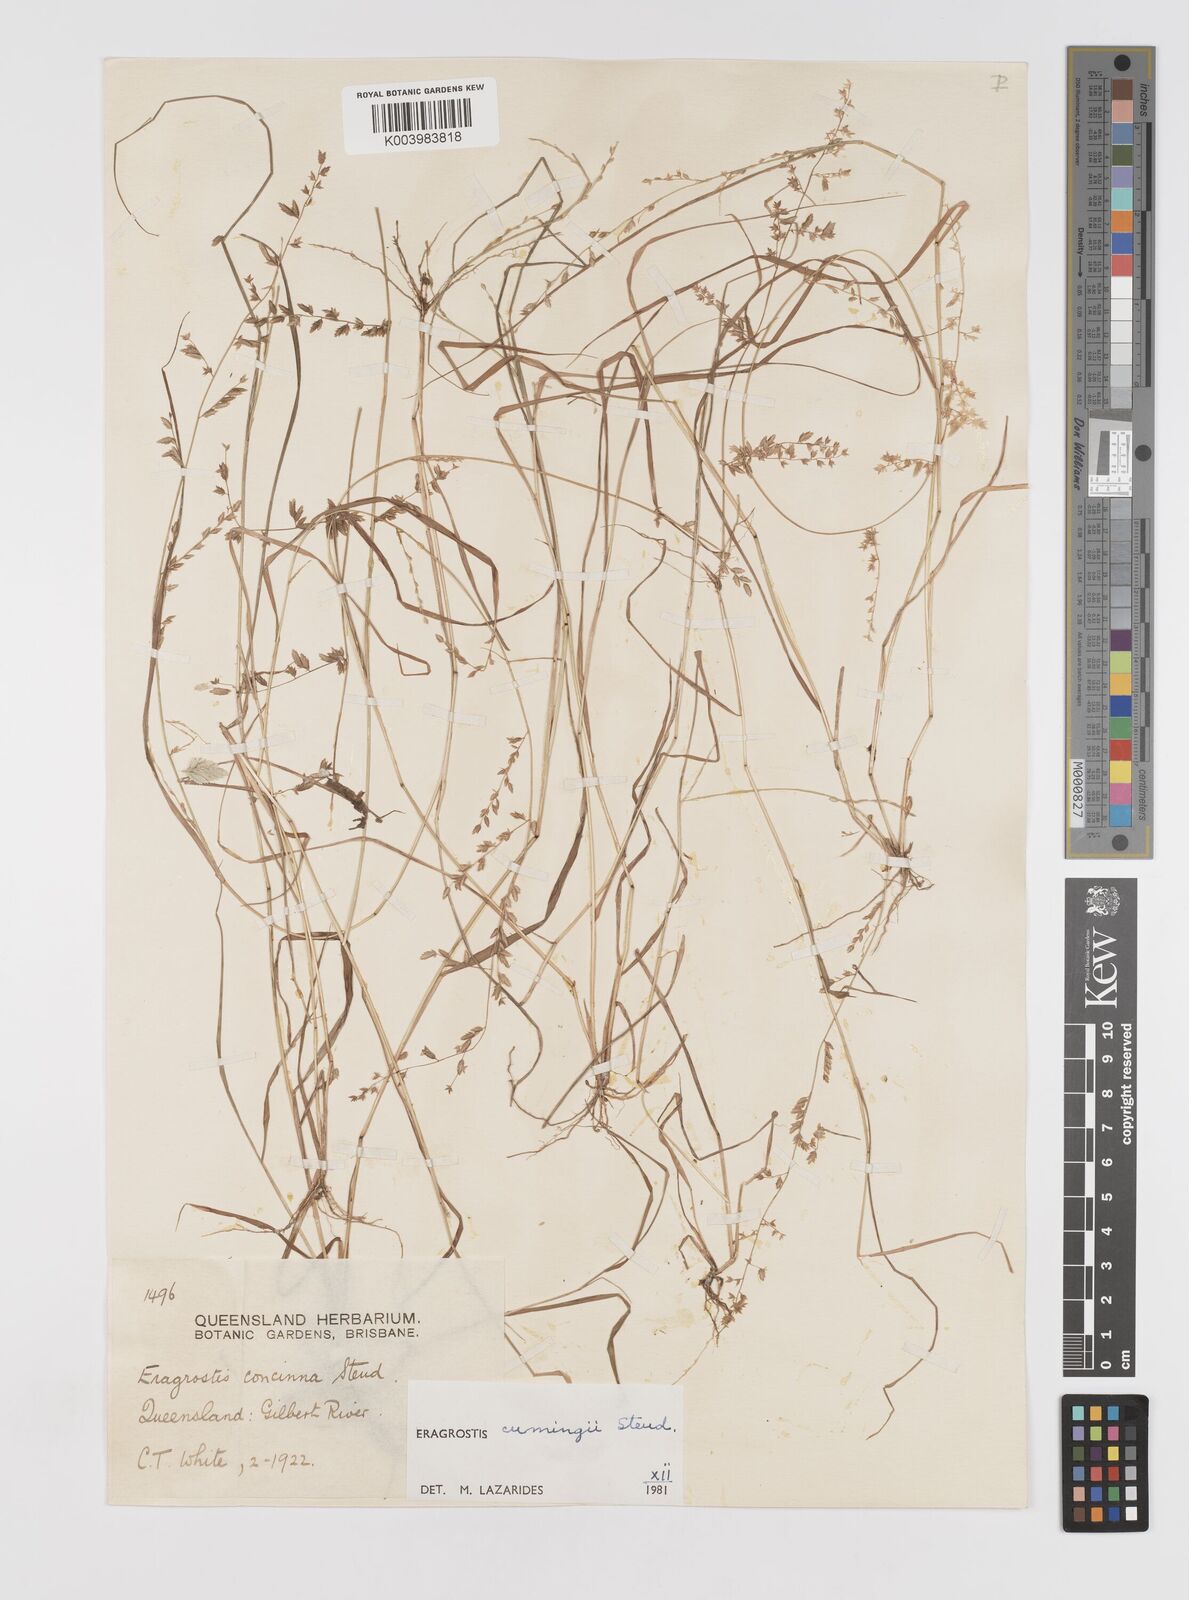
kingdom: Plantae
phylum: Tracheophyta
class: Liliopsida
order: Poales
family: Poaceae
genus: Eragrostis
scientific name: Eragrostis cumingii
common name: Cuming's lovegrass
